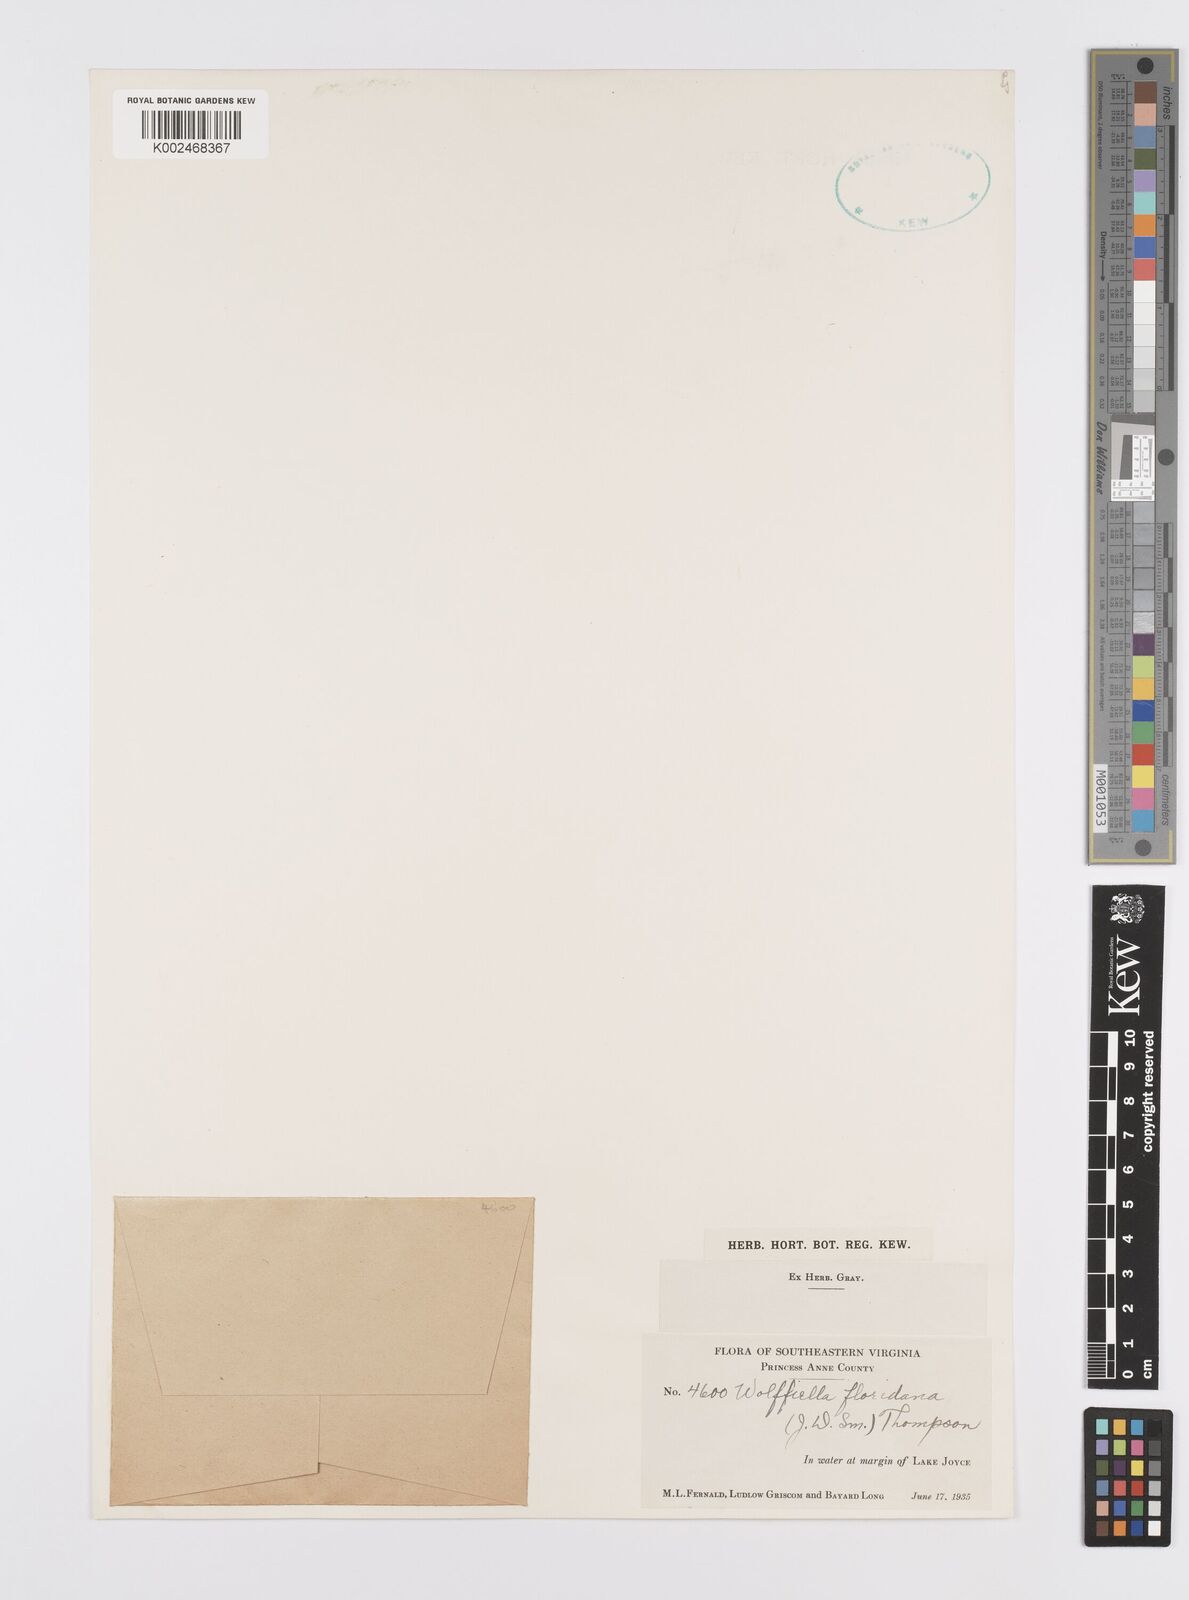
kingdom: Plantae
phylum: Tracheophyta
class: Liliopsida
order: Alismatales
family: Araceae
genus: Wolffiella
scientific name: Wolffiella gladiata
